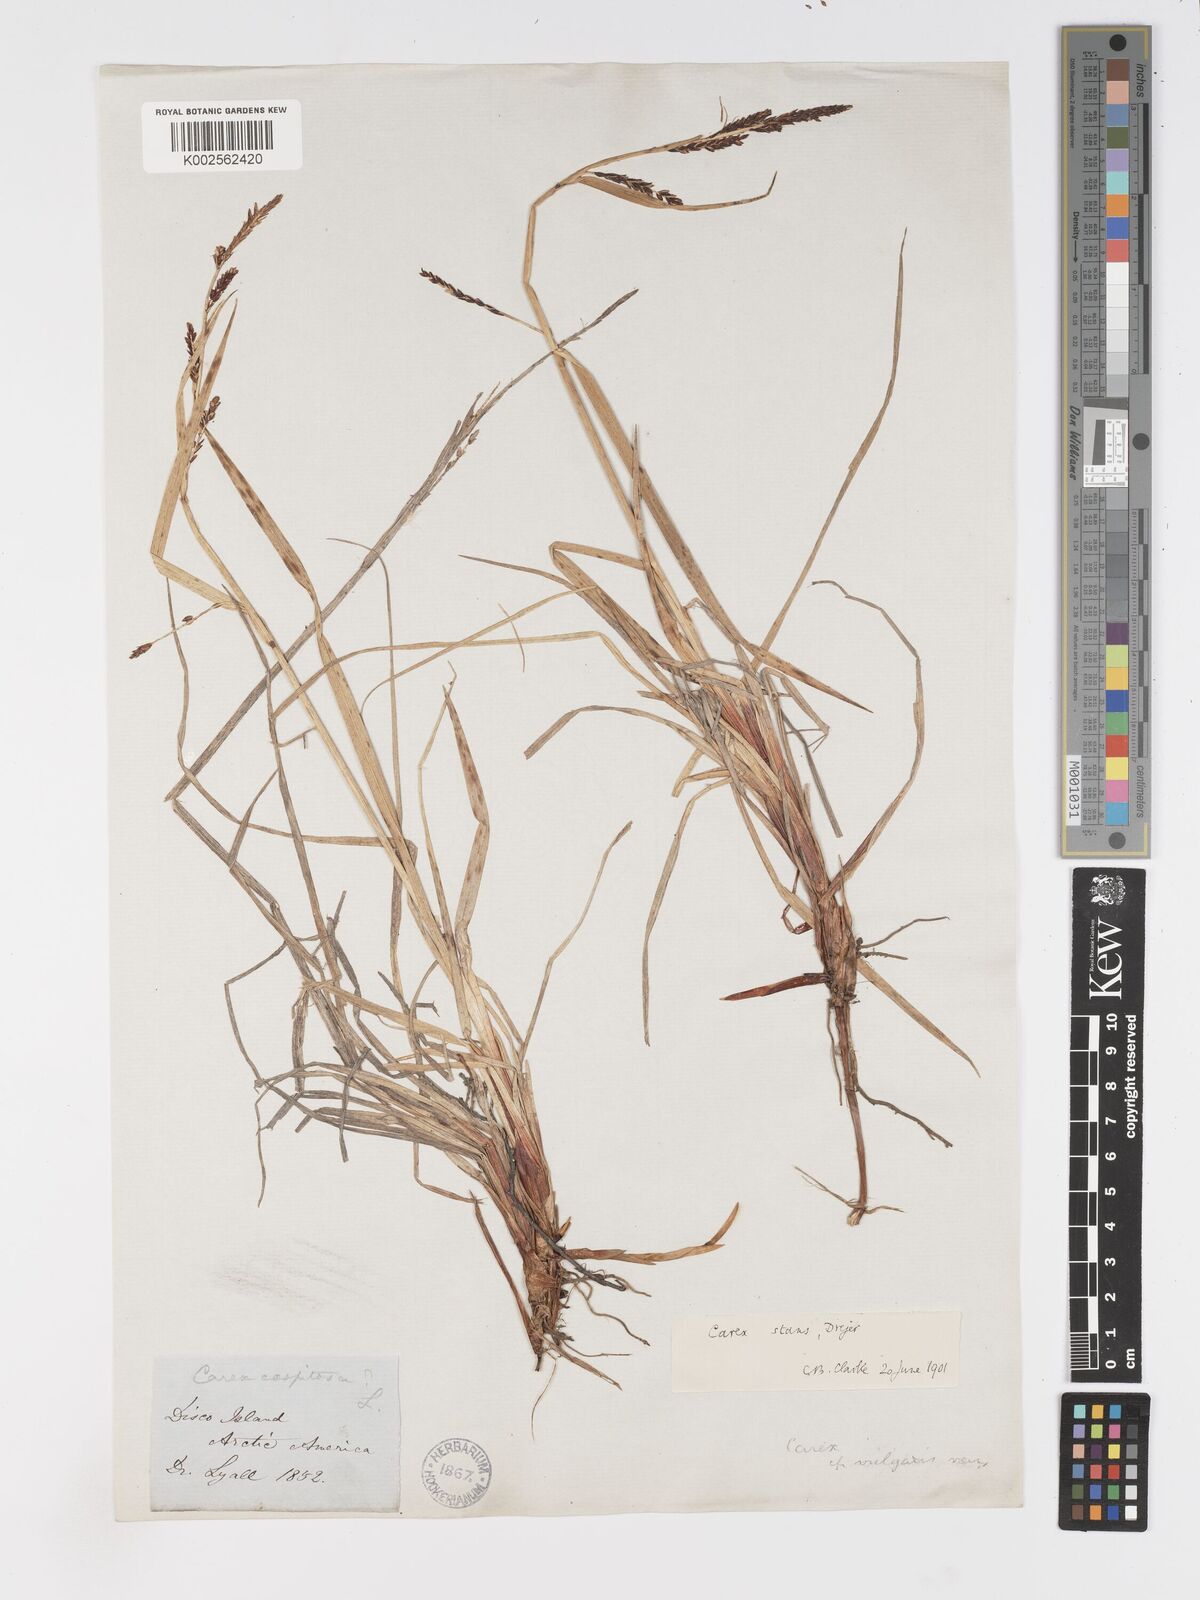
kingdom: Plantae
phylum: Tracheophyta
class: Liliopsida
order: Poales
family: Cyperaceae
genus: Carex
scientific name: Carex
